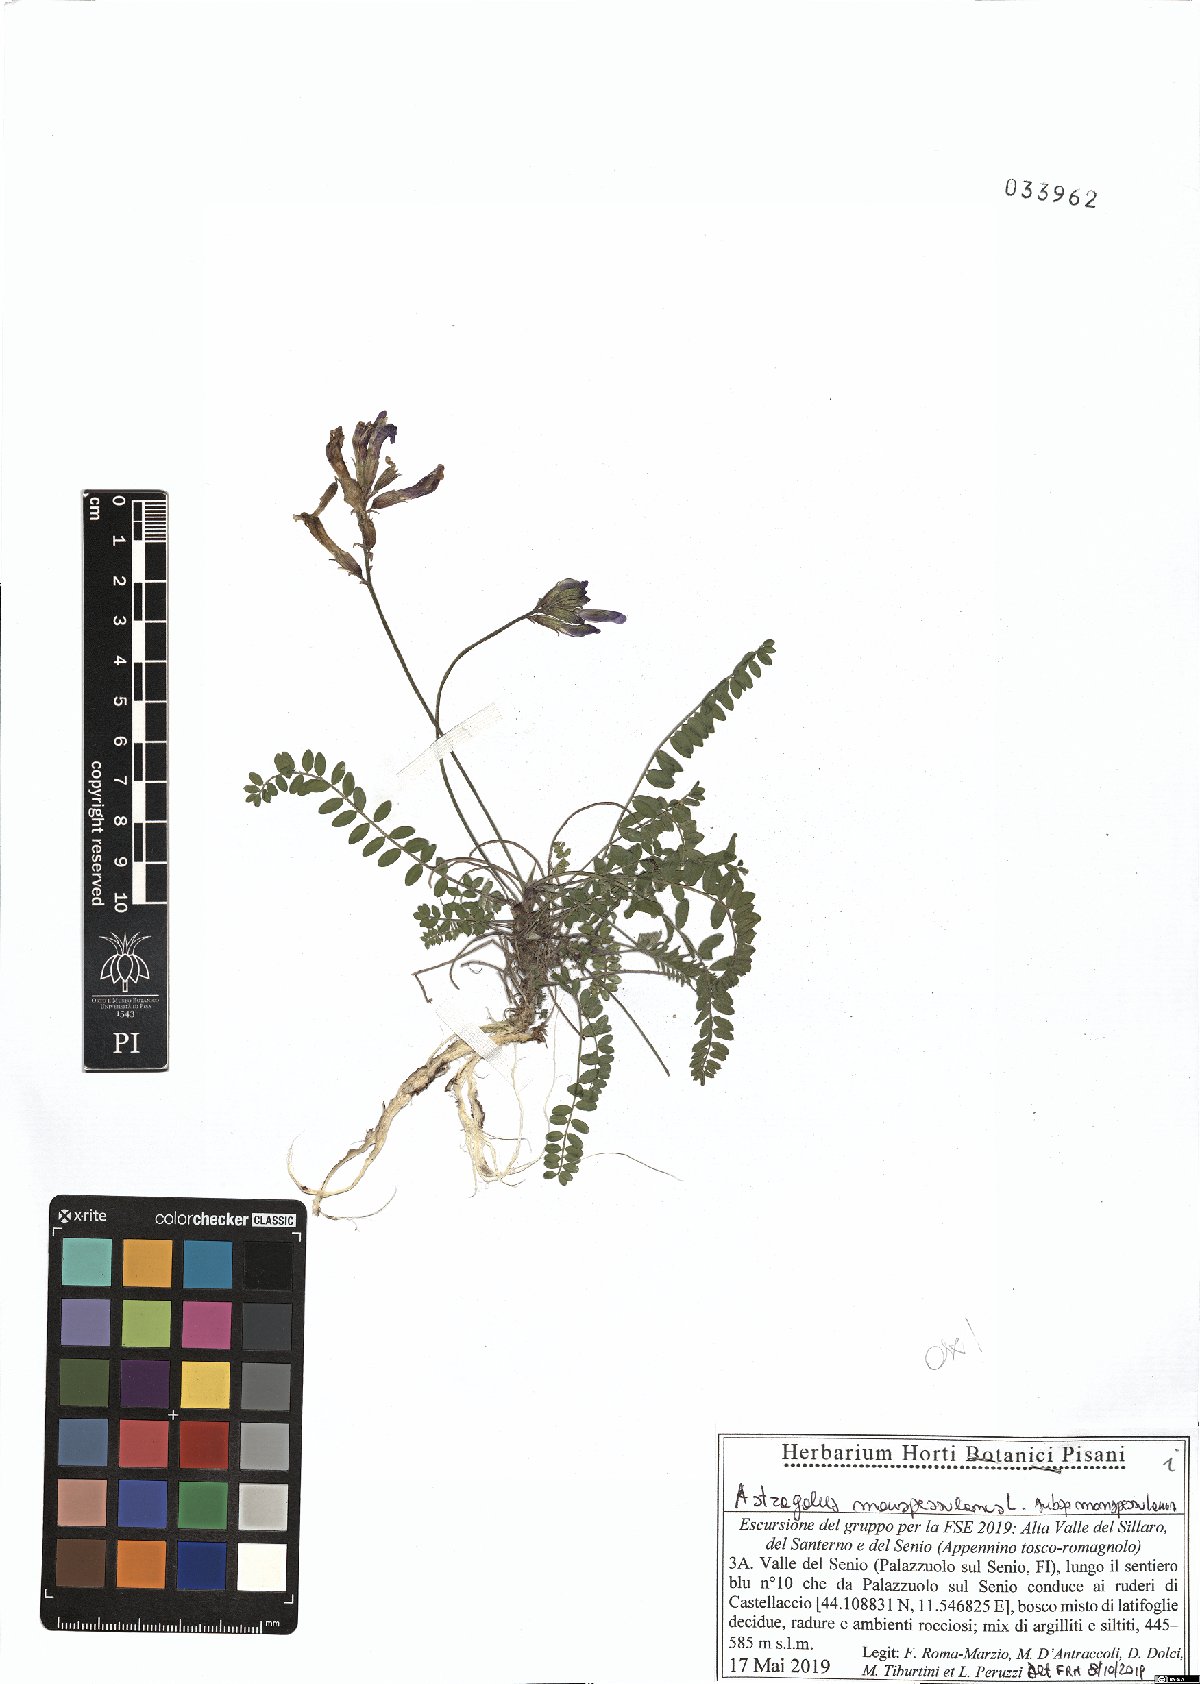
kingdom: Plantae
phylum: Tracheophyta
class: Magnoliopsida
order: Fabales
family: Fabaceae
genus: Astragalus
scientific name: Astragalus monspessulanus
